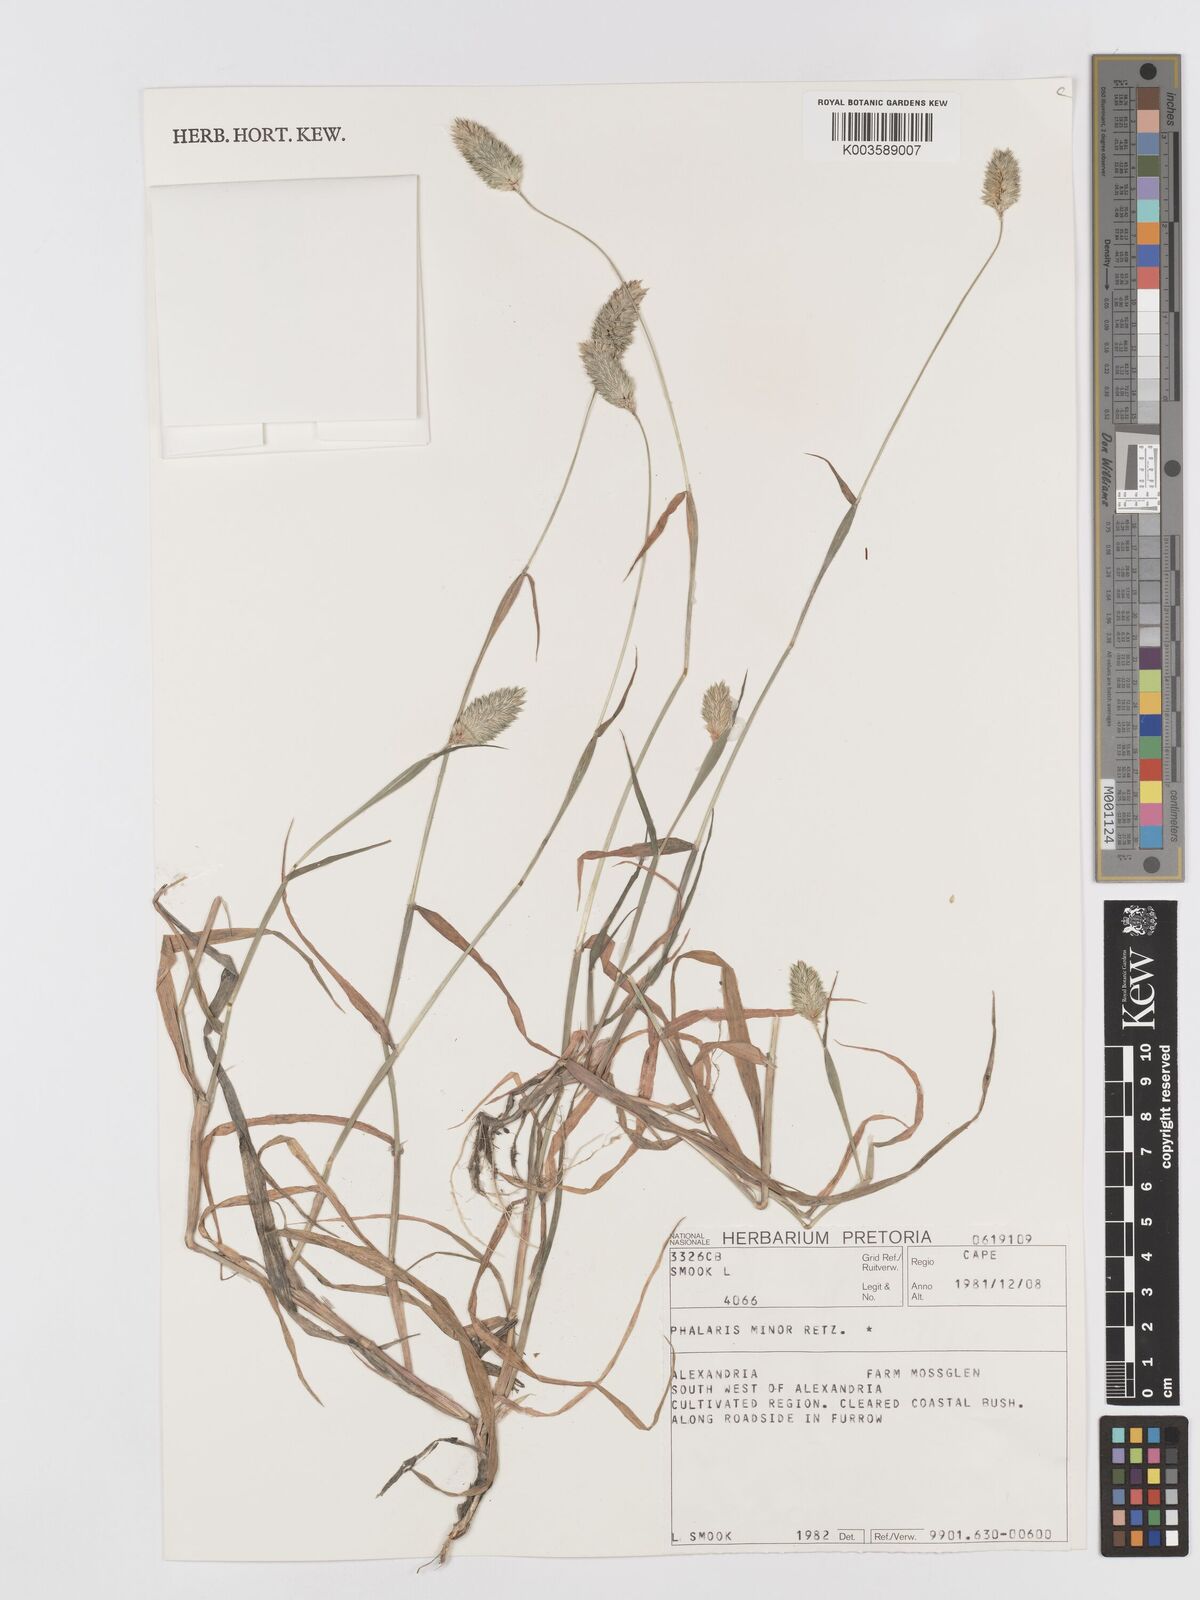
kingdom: Plantae
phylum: Tracheophyta
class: Liliopsida
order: Poales
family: Poaceae
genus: Phalaris
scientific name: Phalaris minor
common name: Littleseed canarygrass
